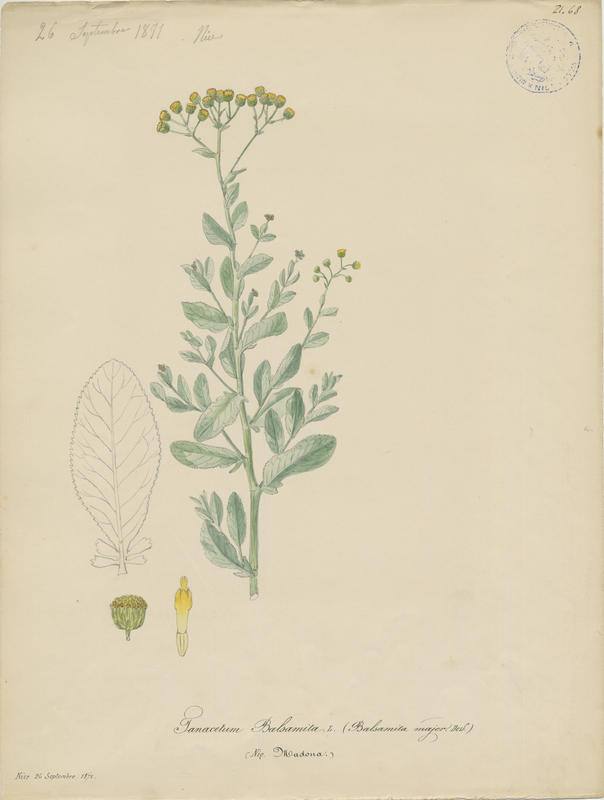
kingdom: Plantae
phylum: Tracheophyta
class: Magnoliopsida
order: Asterales
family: Asteraceae
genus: Tanacetum
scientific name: Tanacetum balsamita
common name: Costmary
